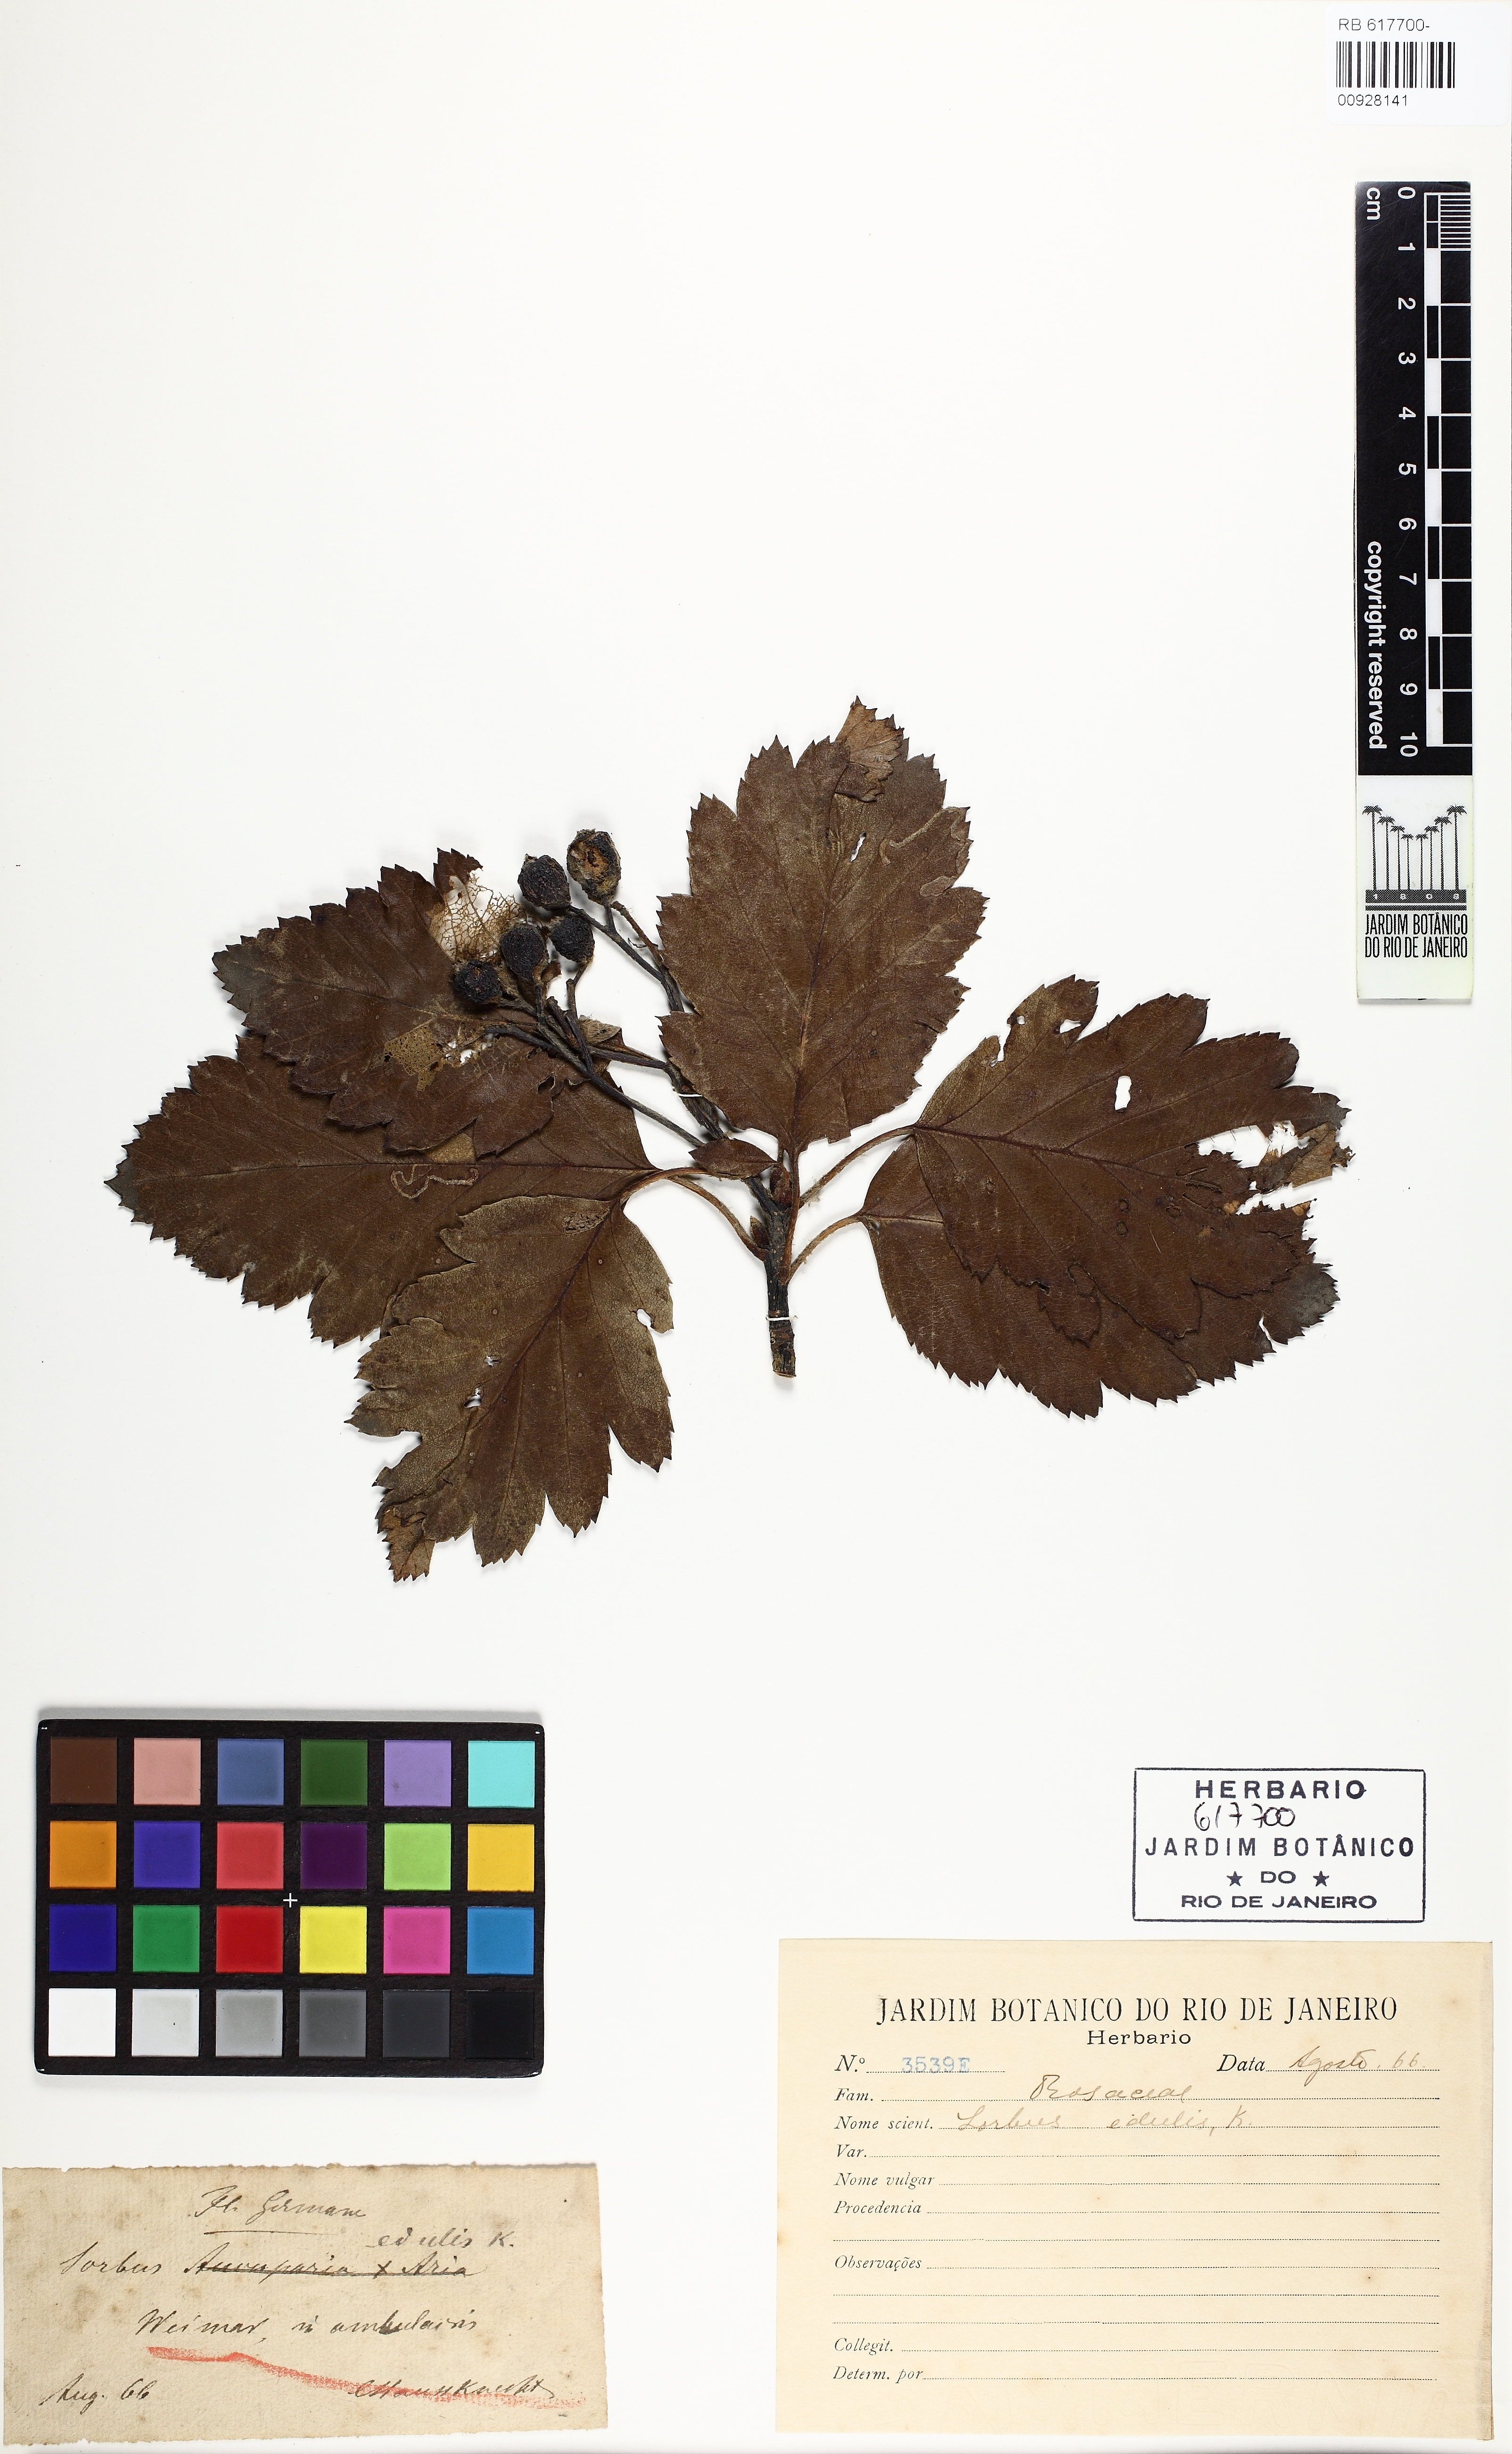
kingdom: Plantae
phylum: Tracheophyta
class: Magnoliopsida
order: Rosales
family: Rosaceae
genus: Aria
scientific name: Aria edulis
